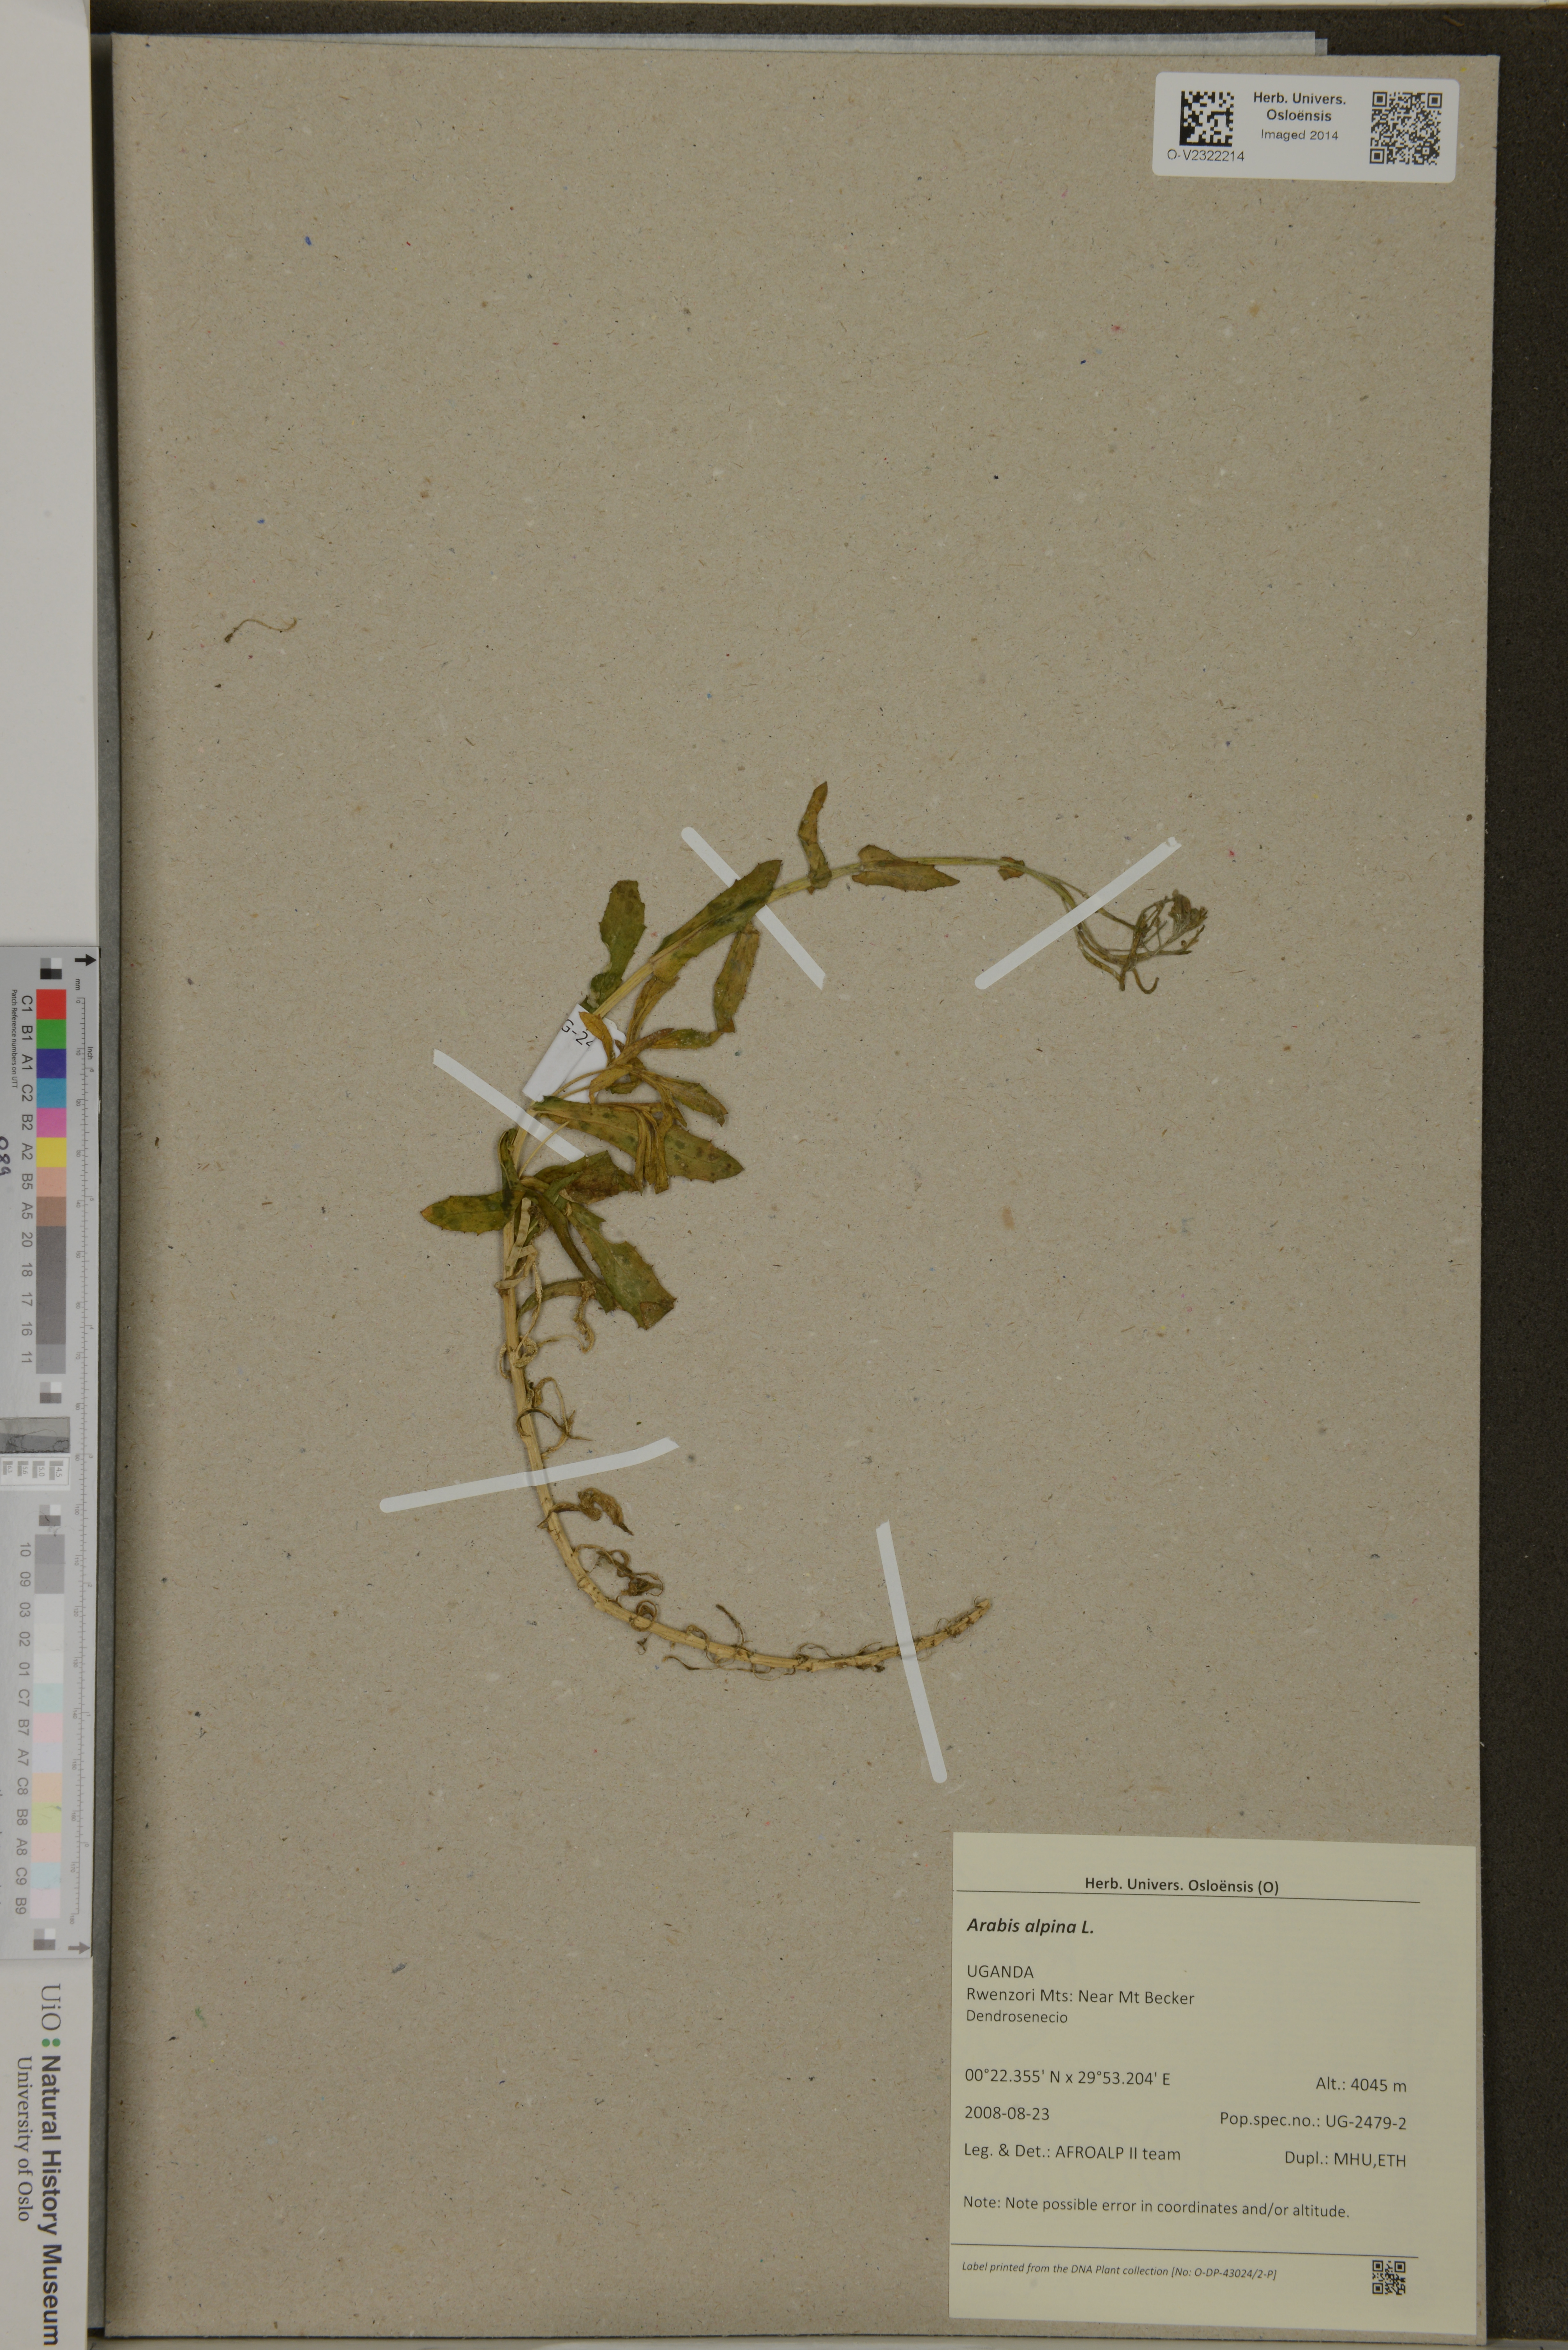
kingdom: Plantae
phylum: Tracheophyta
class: Magnoliopsida
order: Brassicales
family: Brassicaceae
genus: Arabis
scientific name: Arabis alpina
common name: Alpine rock-cress
